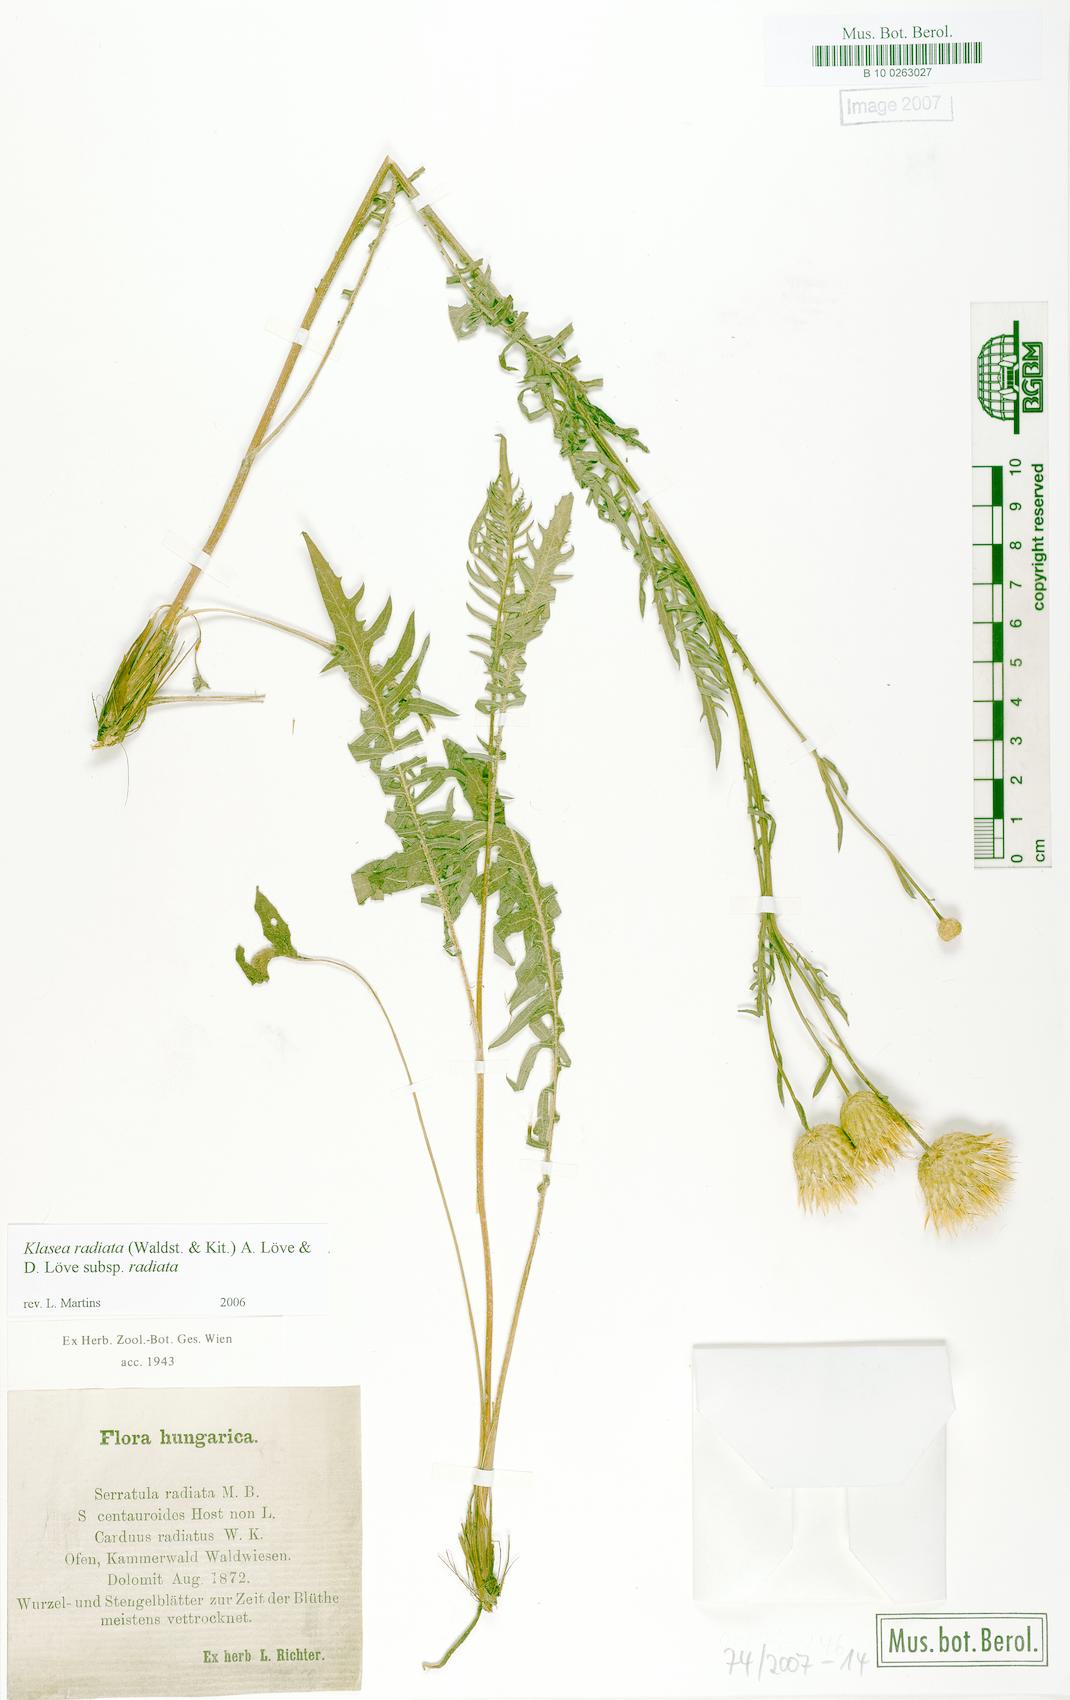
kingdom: Plantae
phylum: Tracheophyta
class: Magnoliopsida
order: Asterales
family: Asteraceae
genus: Klasea
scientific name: Klasea radiata
